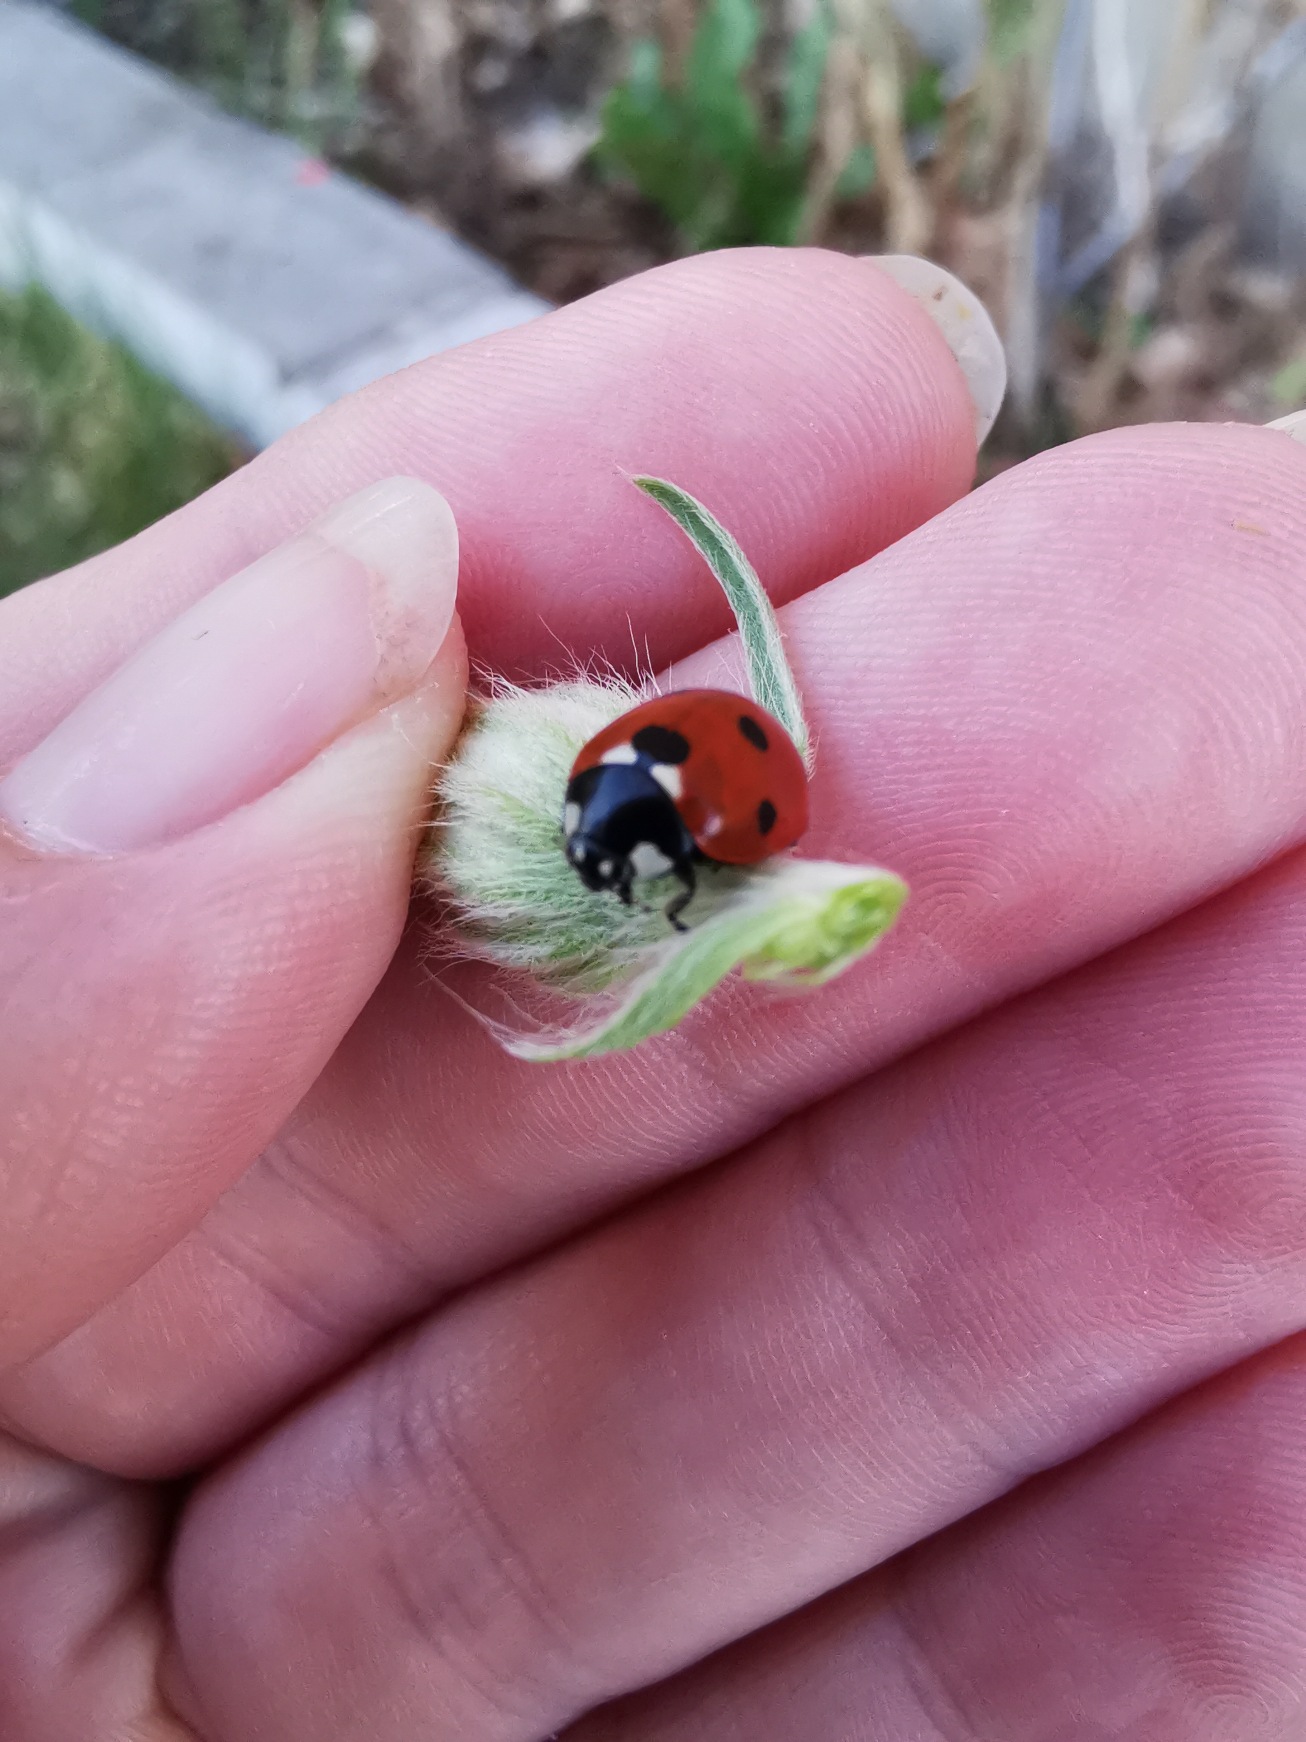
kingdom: Animalia
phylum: Arthropoda
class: Insecta
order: Coleoptera
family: Coccinellidae
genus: Coccinella
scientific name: Coccinella septempunctata
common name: Syvplettet mariehøne
